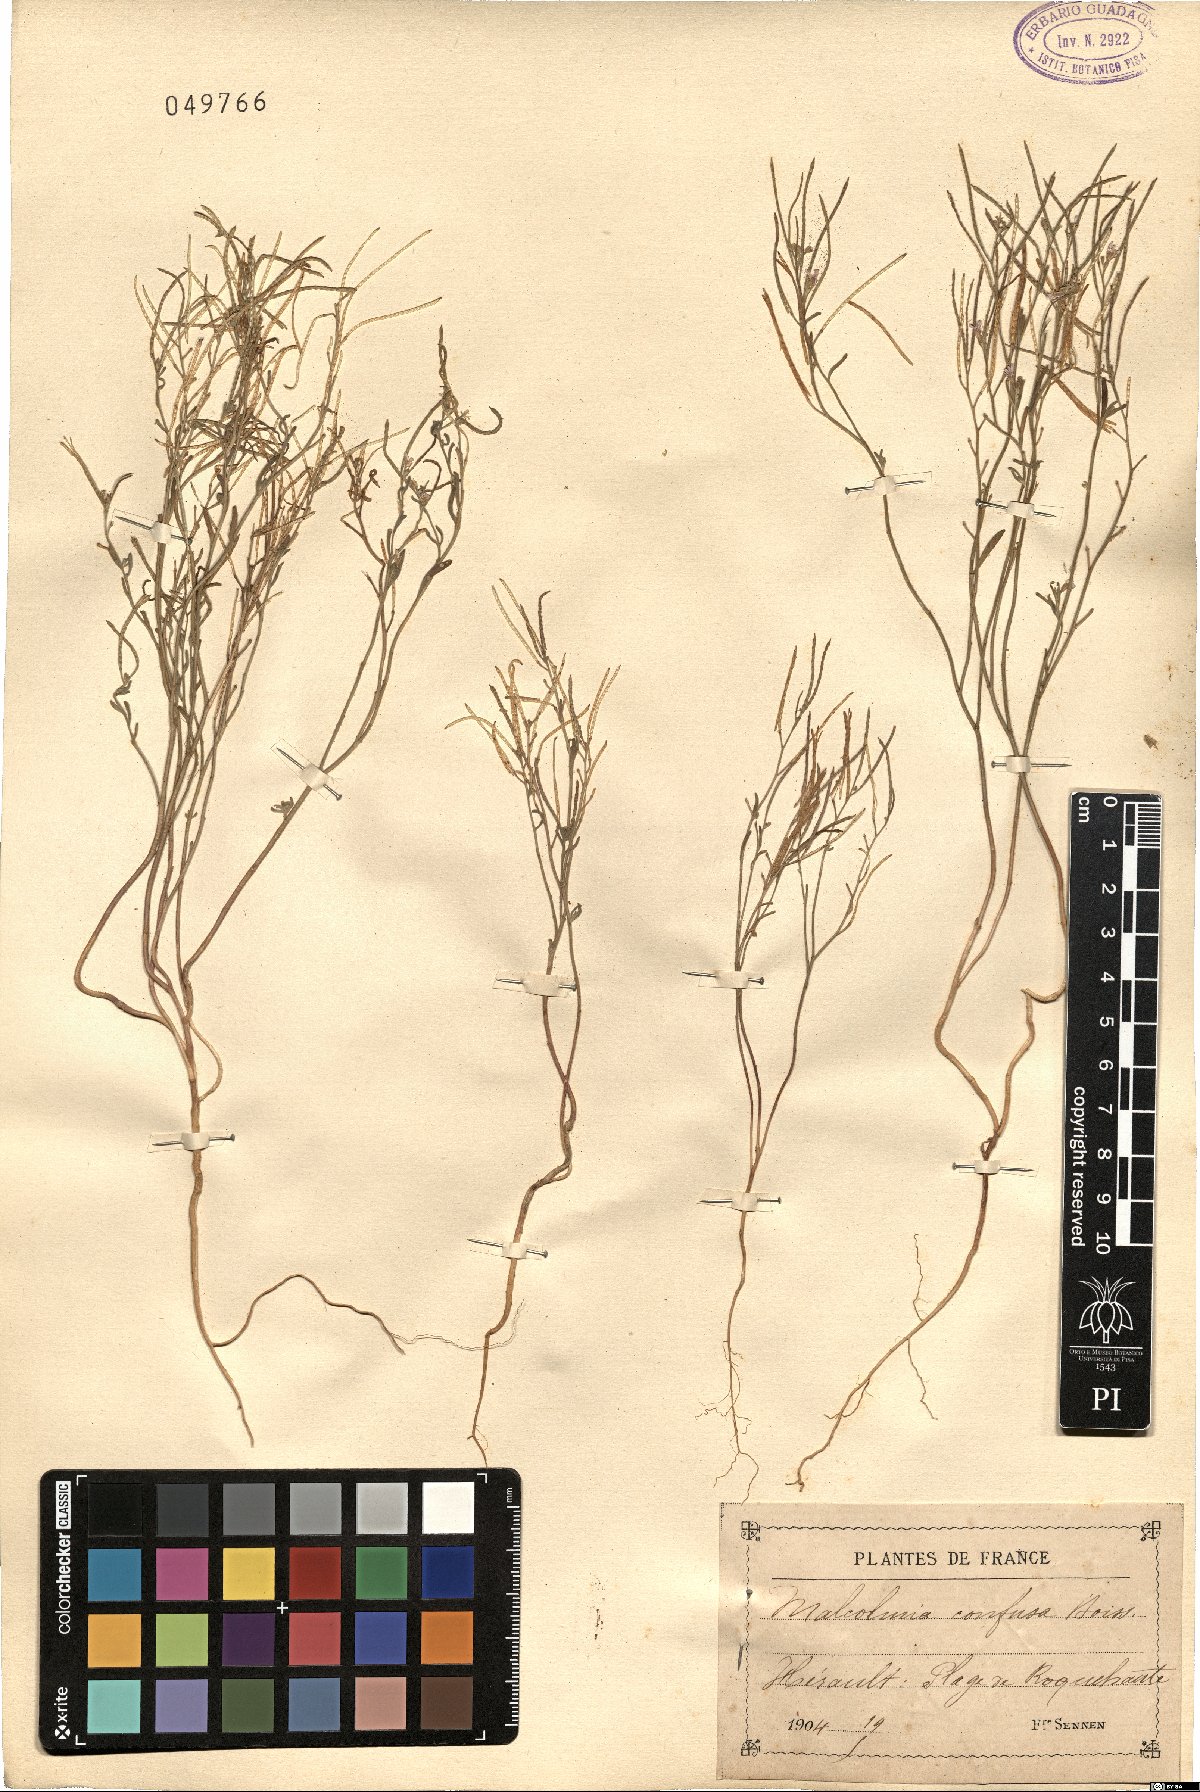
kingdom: Plantae
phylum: Tracheophyta
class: Magnoliopsida
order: Brassicales
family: Brassicaceae
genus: Maresia
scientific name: Maresia nana
